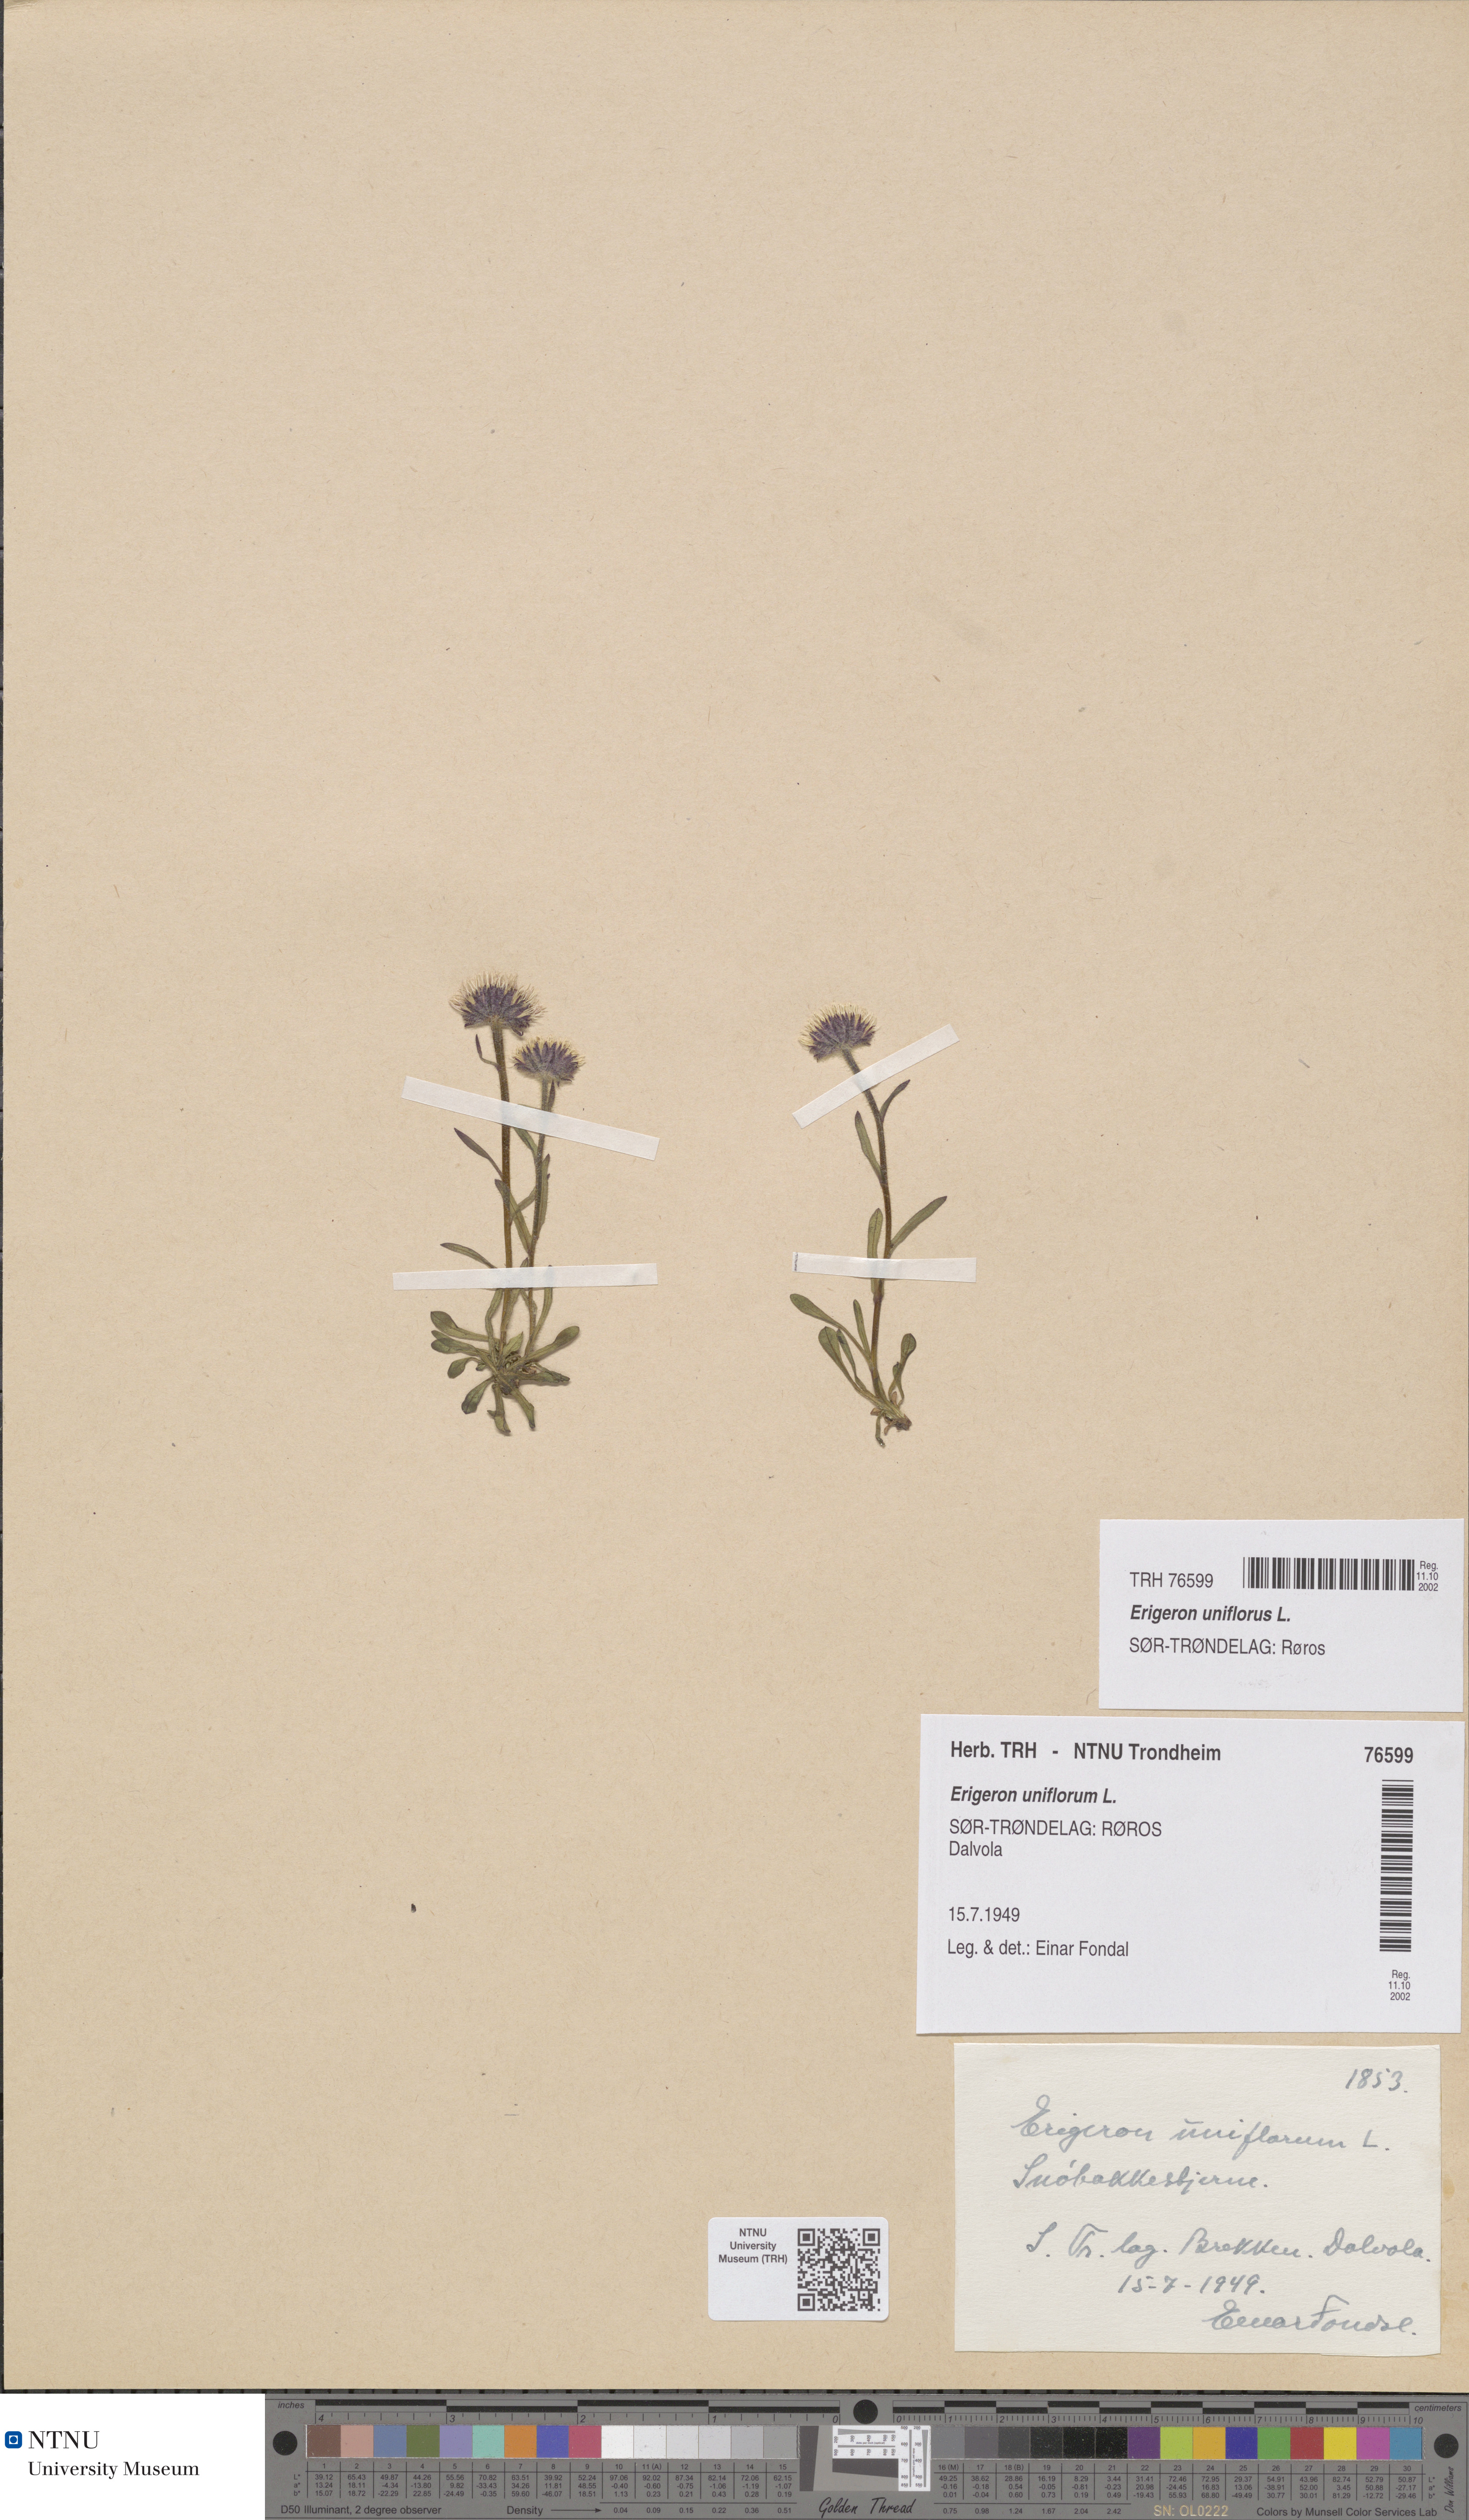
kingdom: Plantae
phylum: Tracheophyta
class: Magnoliopsida
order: Asterales
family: Asteraceae
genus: Erigeron
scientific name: Erigeron uniflorus
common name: Northern daisy
